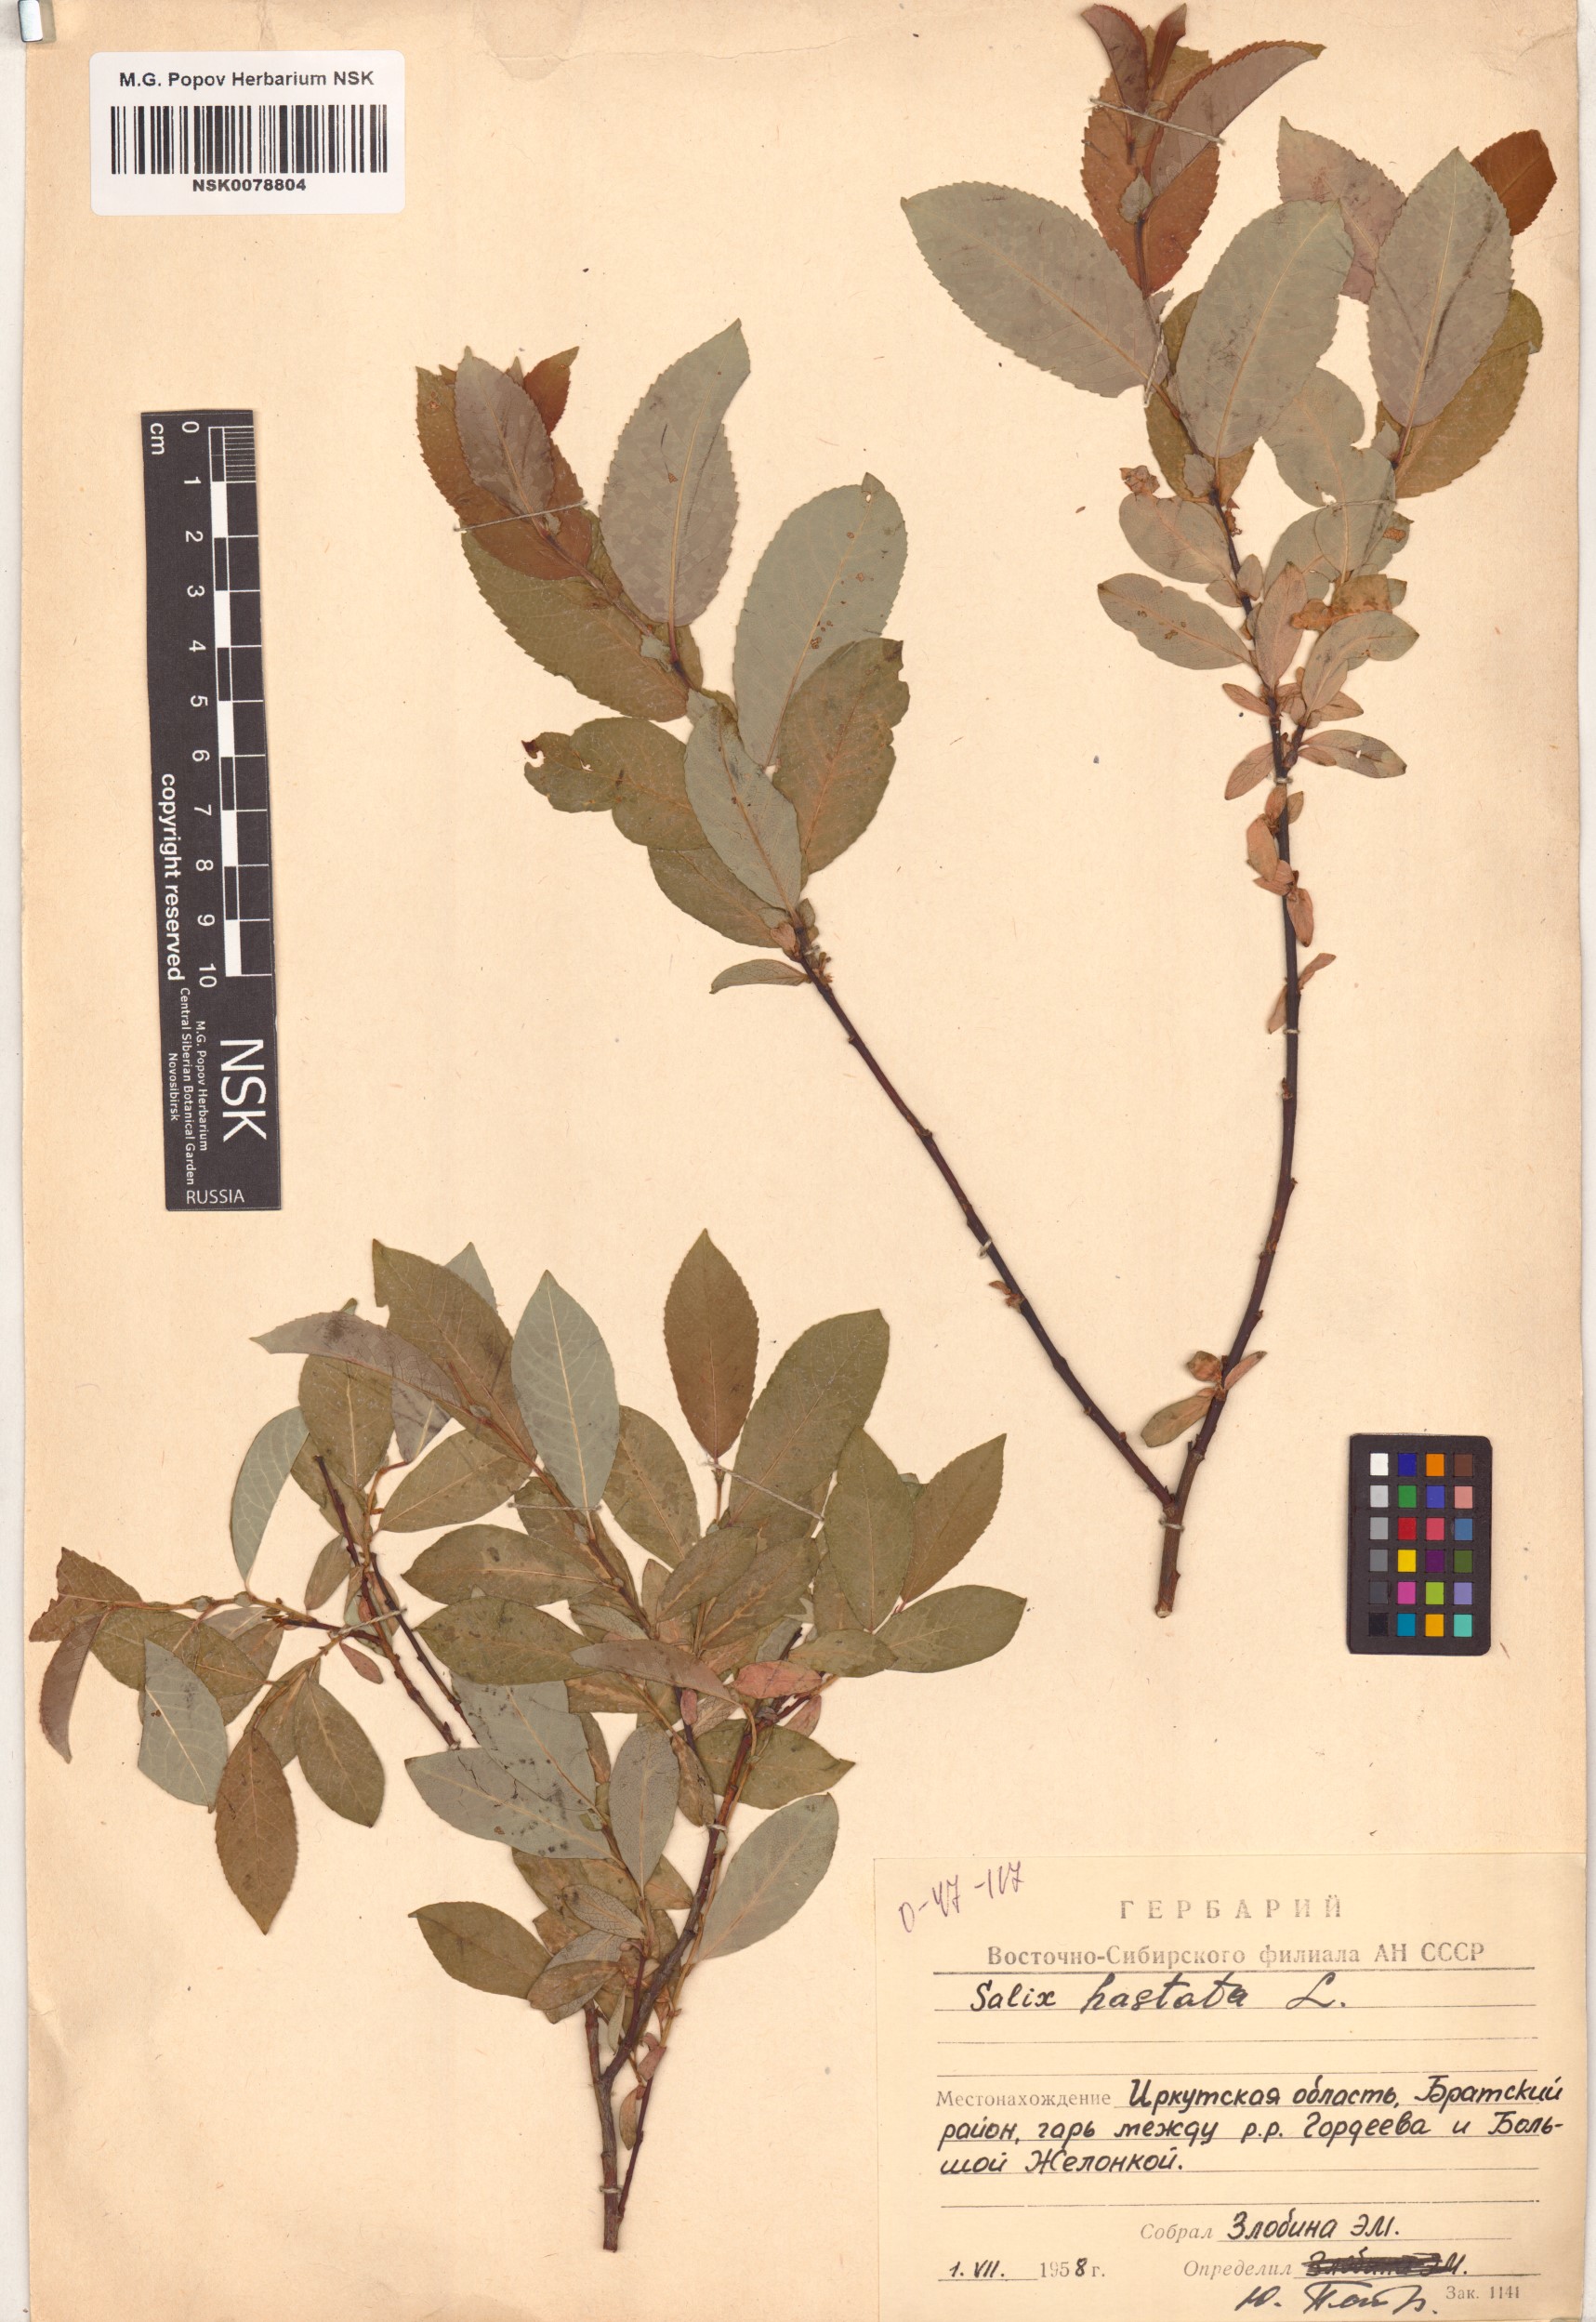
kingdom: Plantae
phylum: Tracheophyta
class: Magnoliopsida
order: Malpighiales
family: Salicaceae
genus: Salix
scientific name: Salix hastata
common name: Halberd willow
